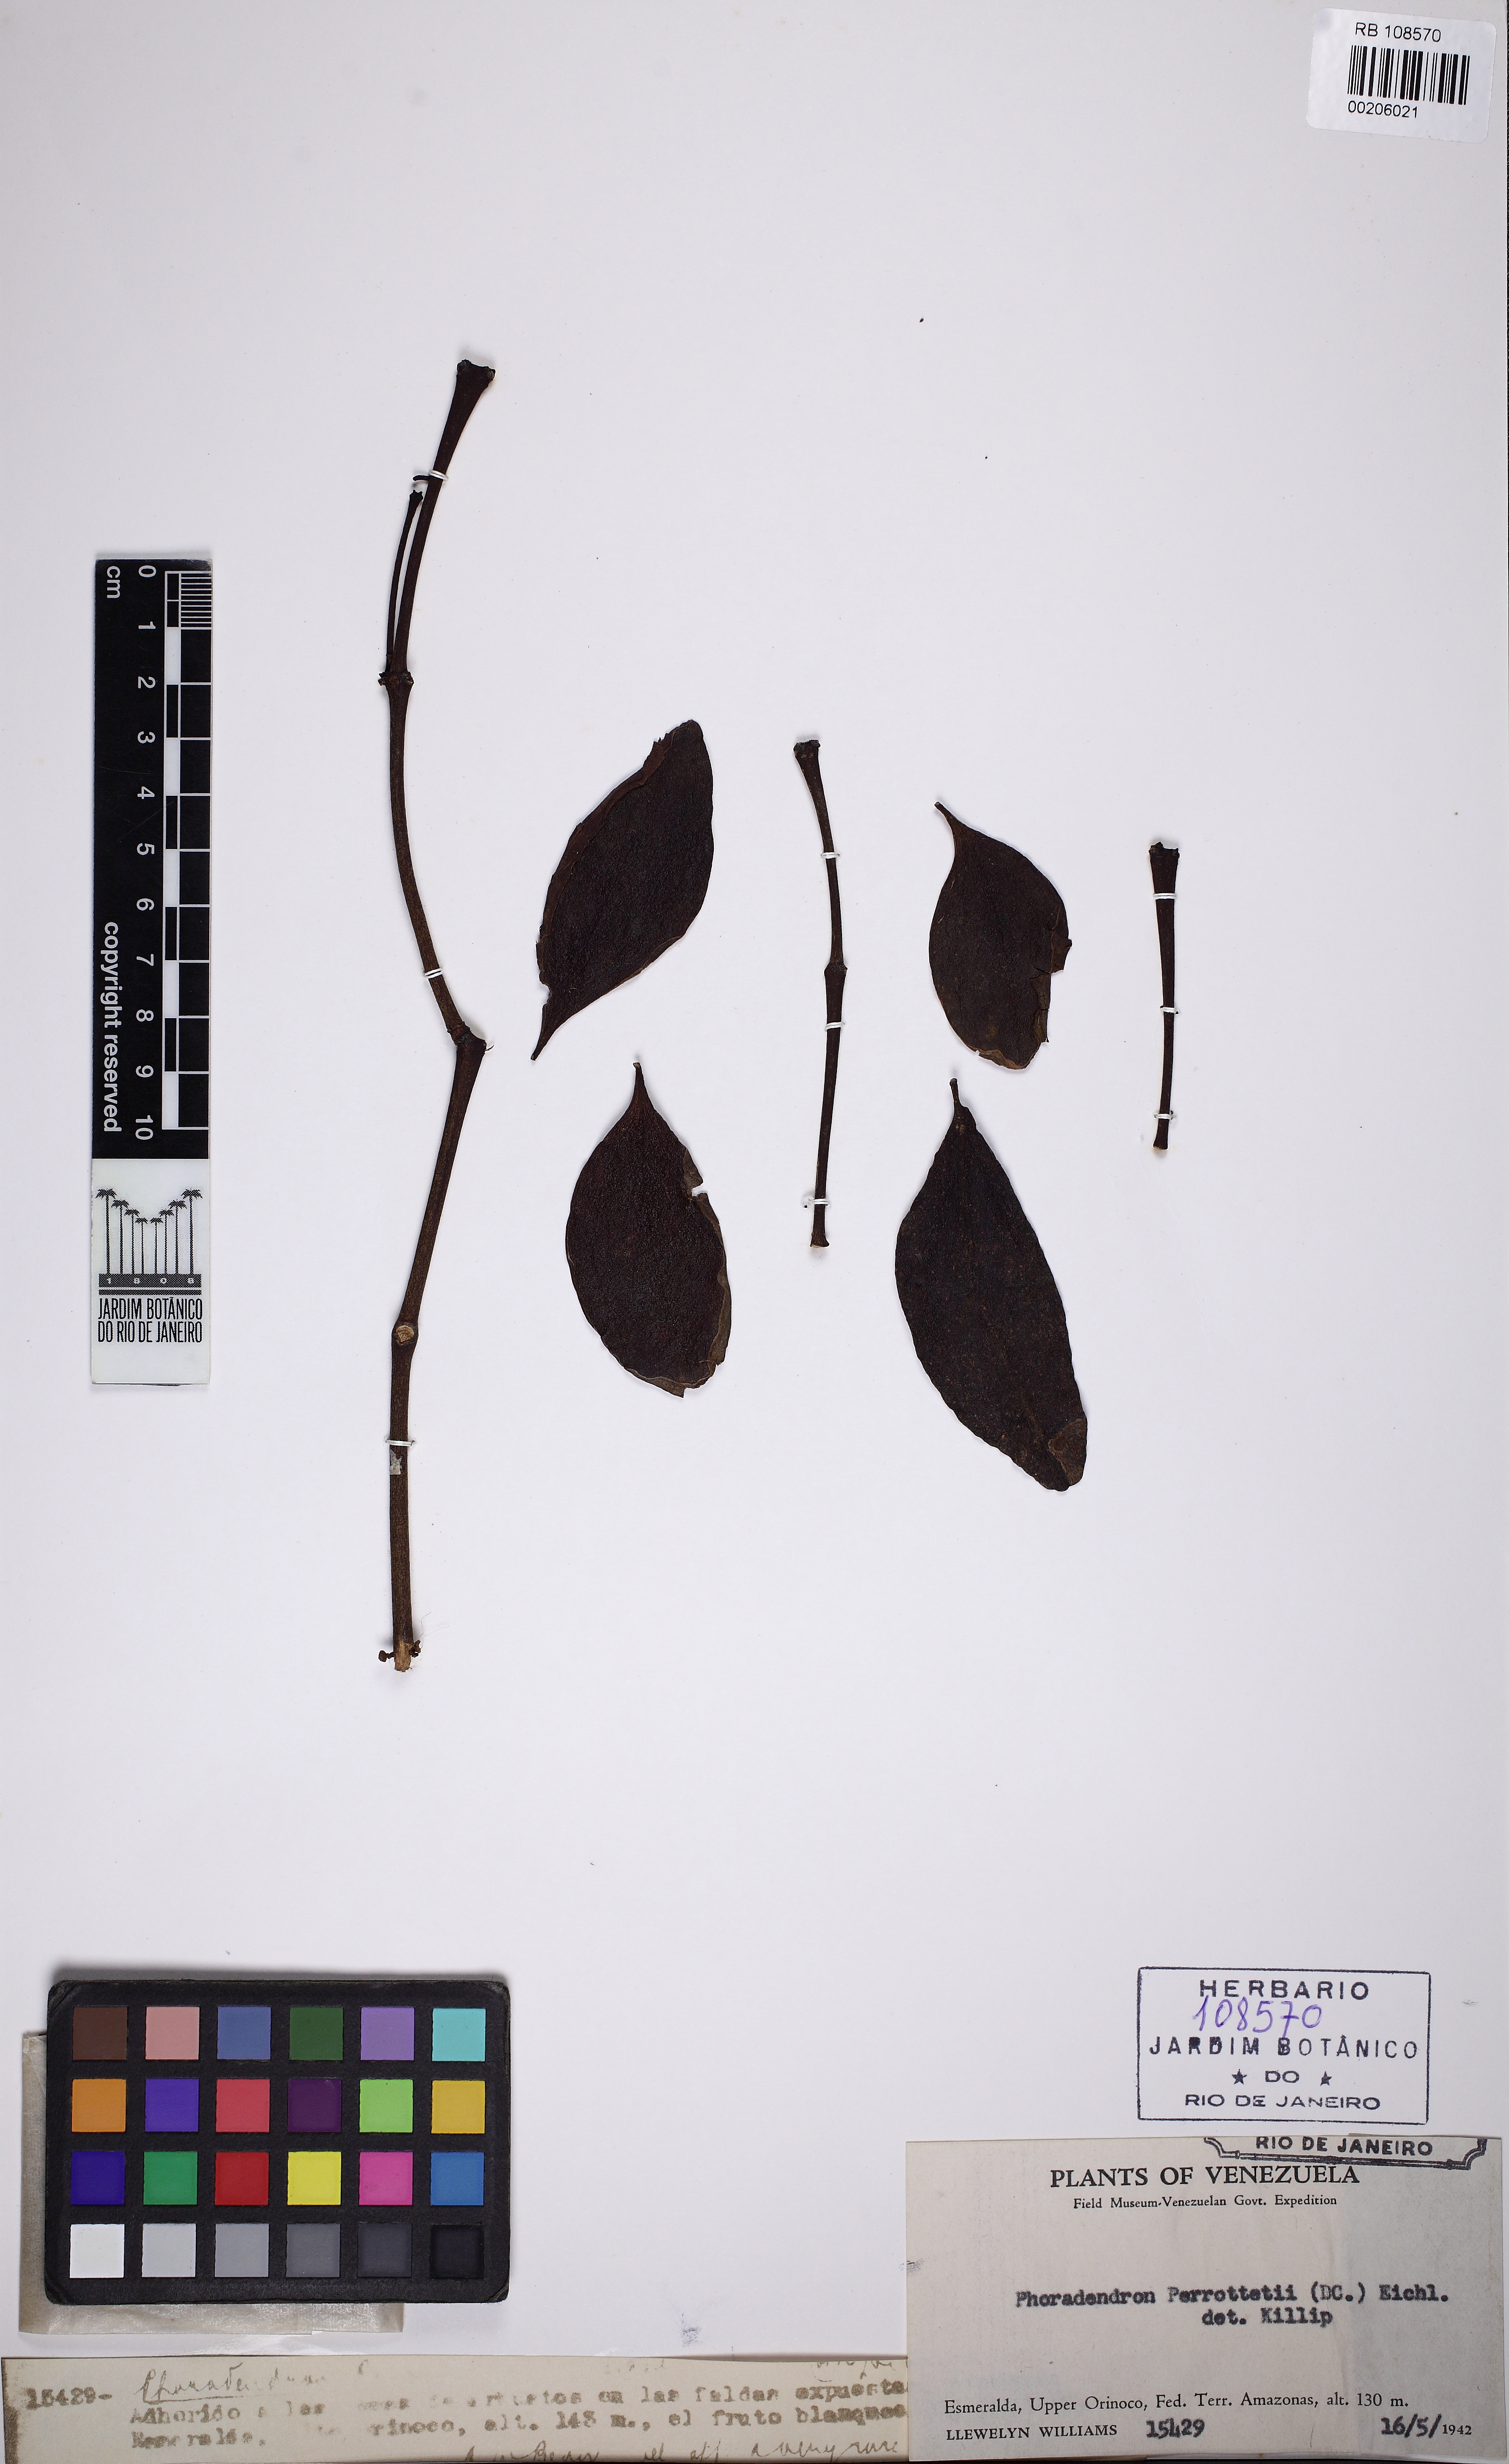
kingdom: Plantae
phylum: Tracheophyta
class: Magnoliopsida
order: Santalales
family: Viscaceae
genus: Phoradendron
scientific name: Phoradendron perrottetii
